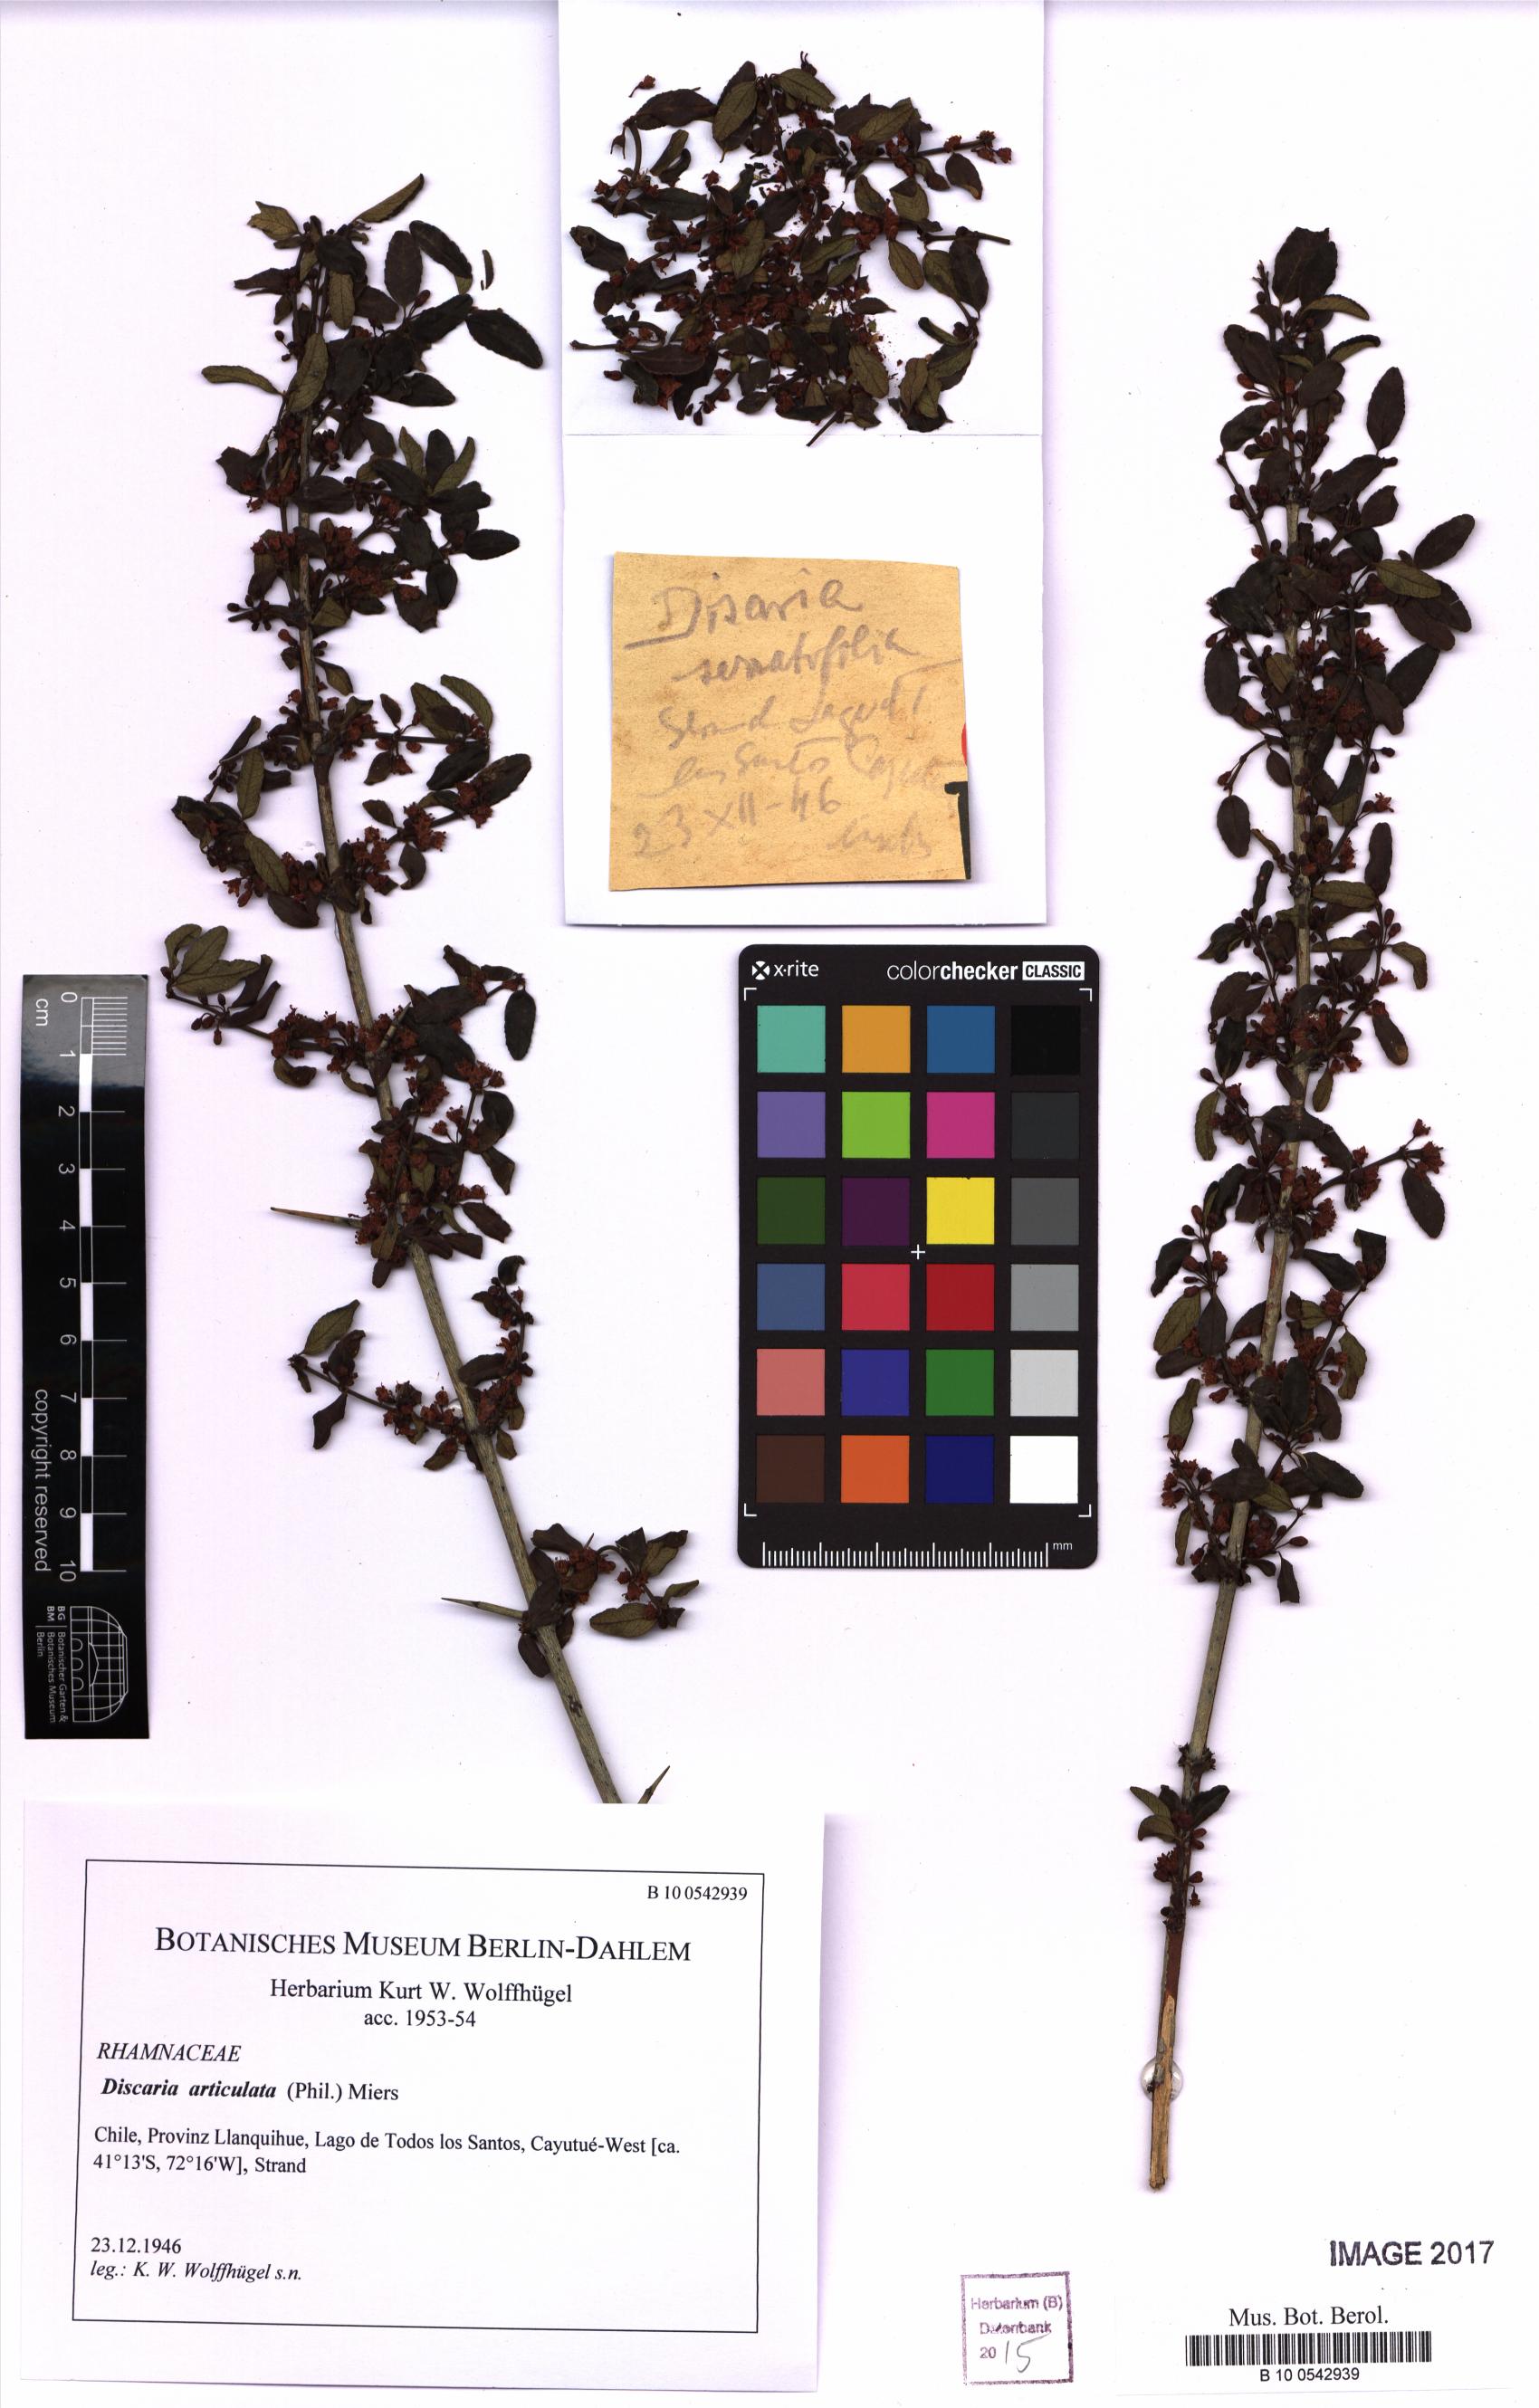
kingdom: Plantae
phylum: Tracheophyta
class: Magnoliopsida
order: Rosales
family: Rhamnaceae
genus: Discaria
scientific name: Discaria articulata
